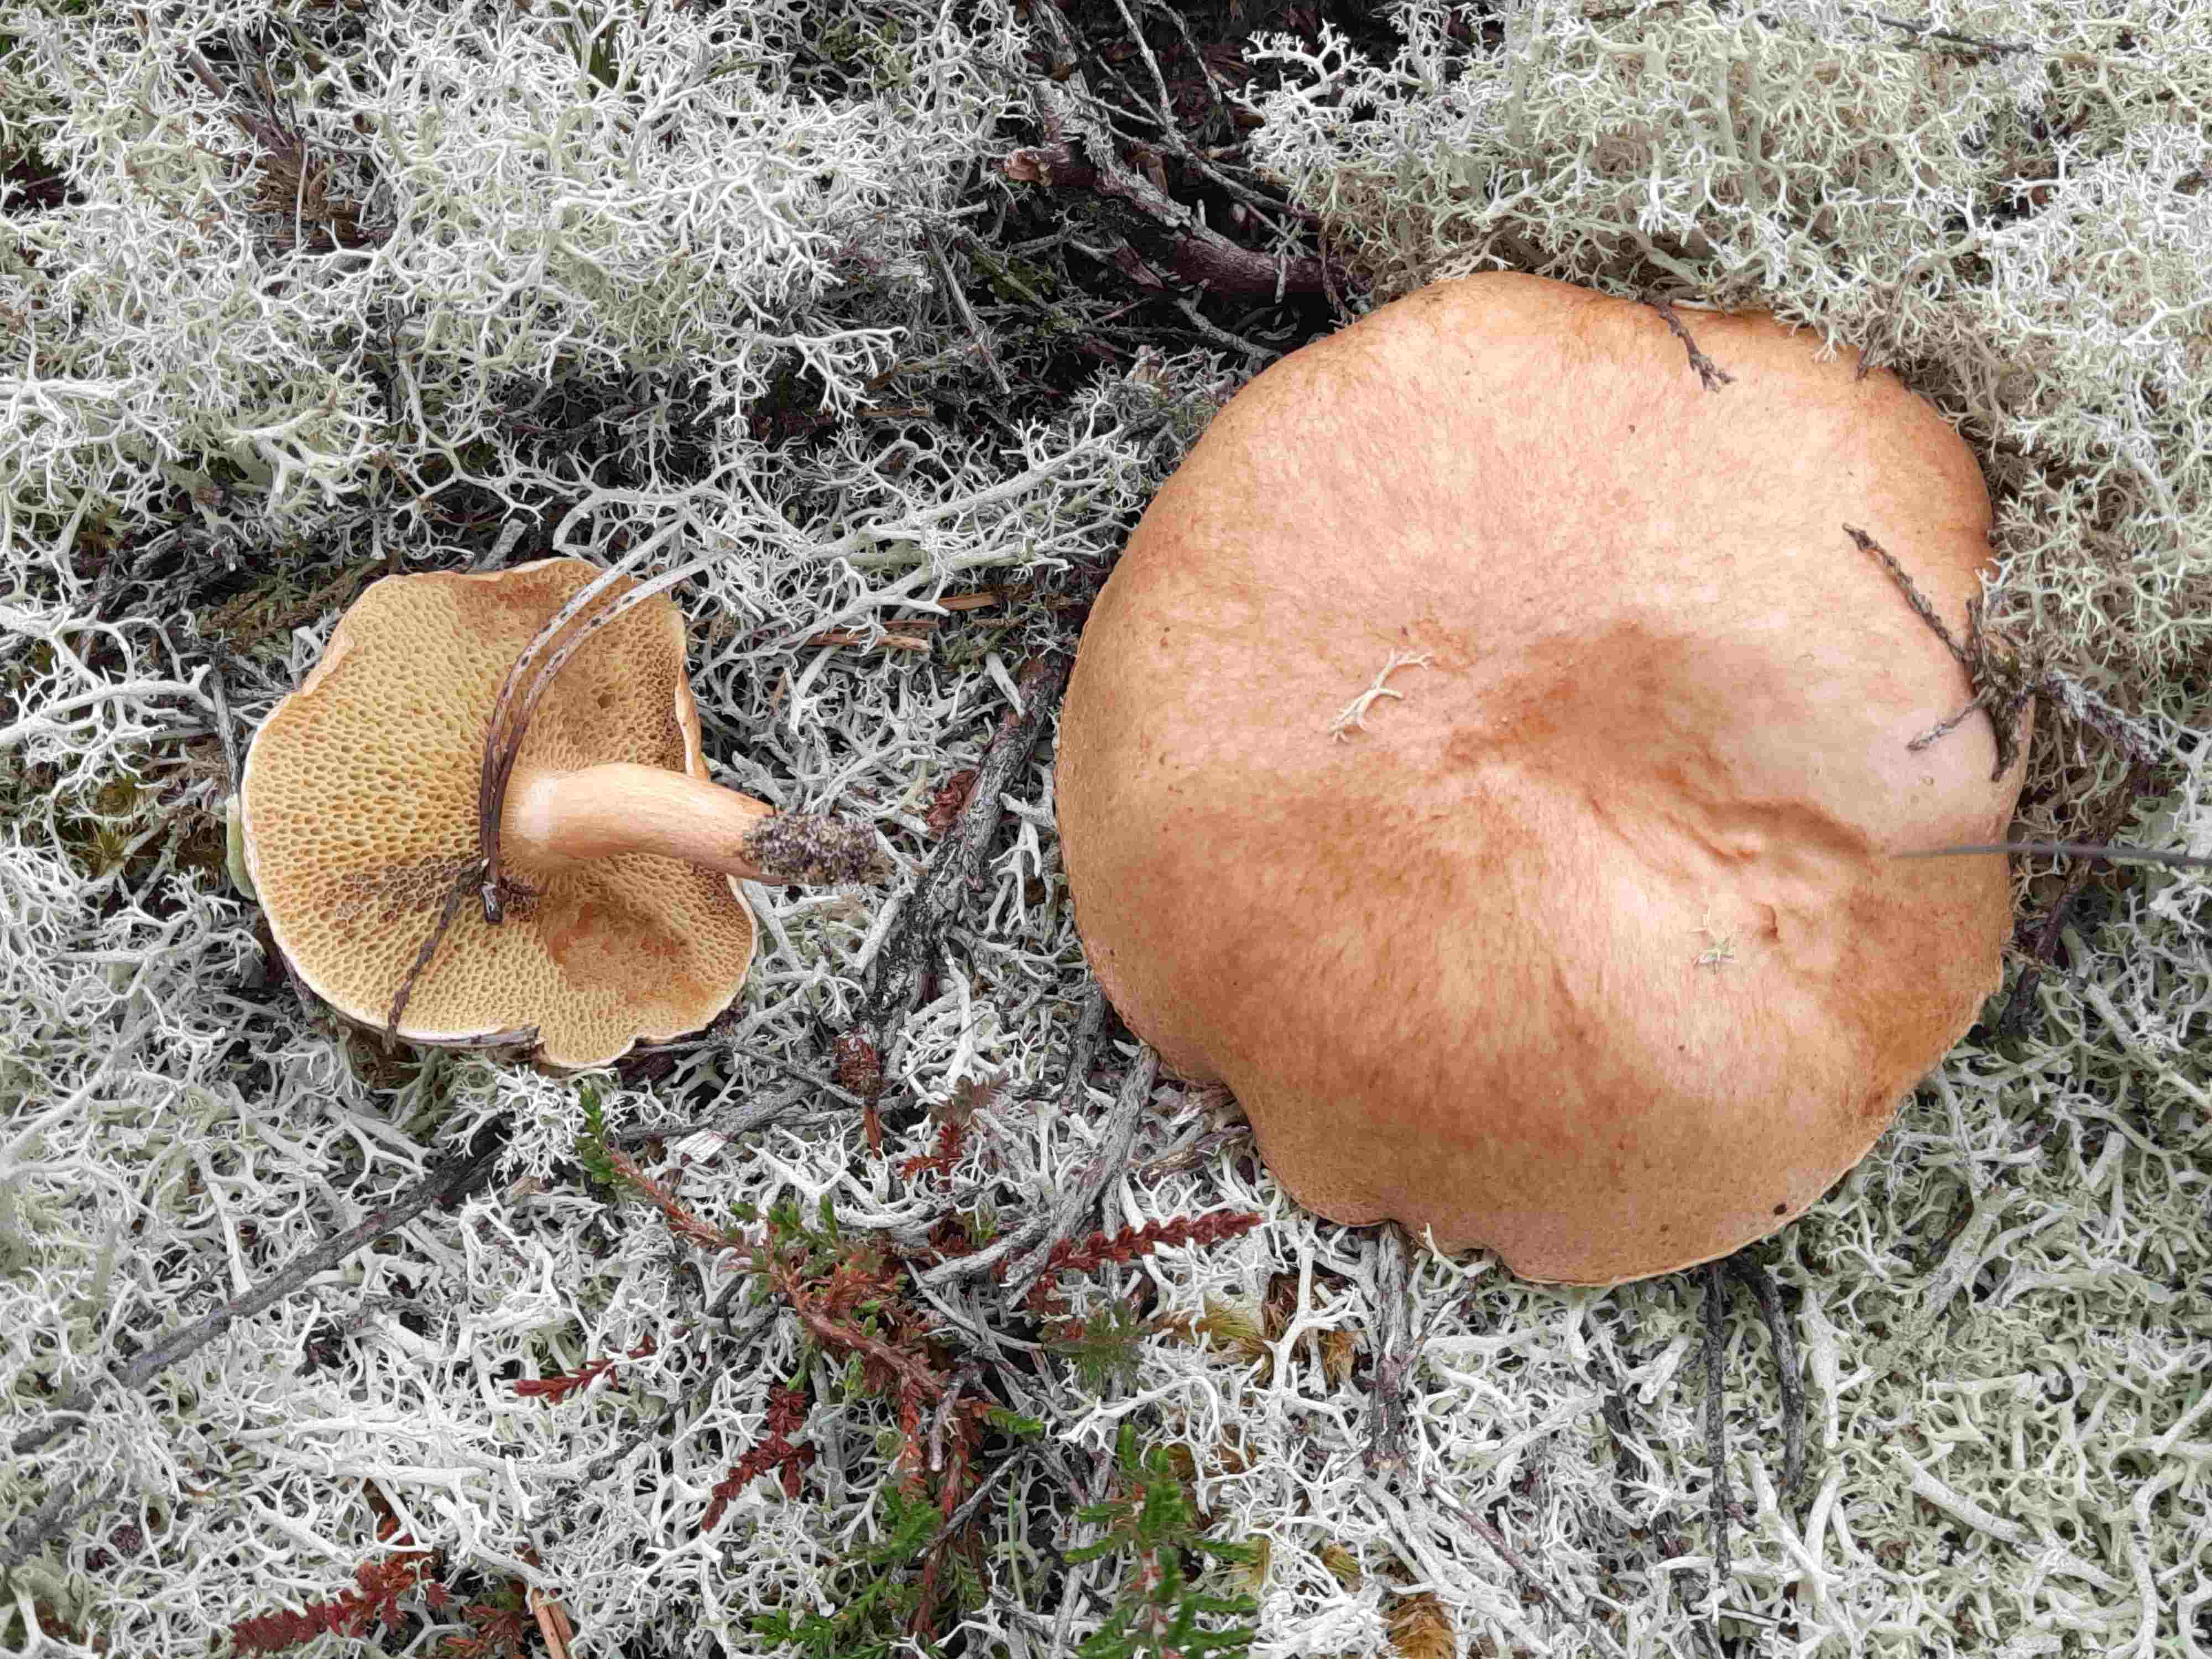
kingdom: Fungi
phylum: Basidiomycota
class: Agaricomycetes
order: Boletales
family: Suillaceae
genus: Suillus
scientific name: Suillus bovinus
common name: grovporet slimrørhat
